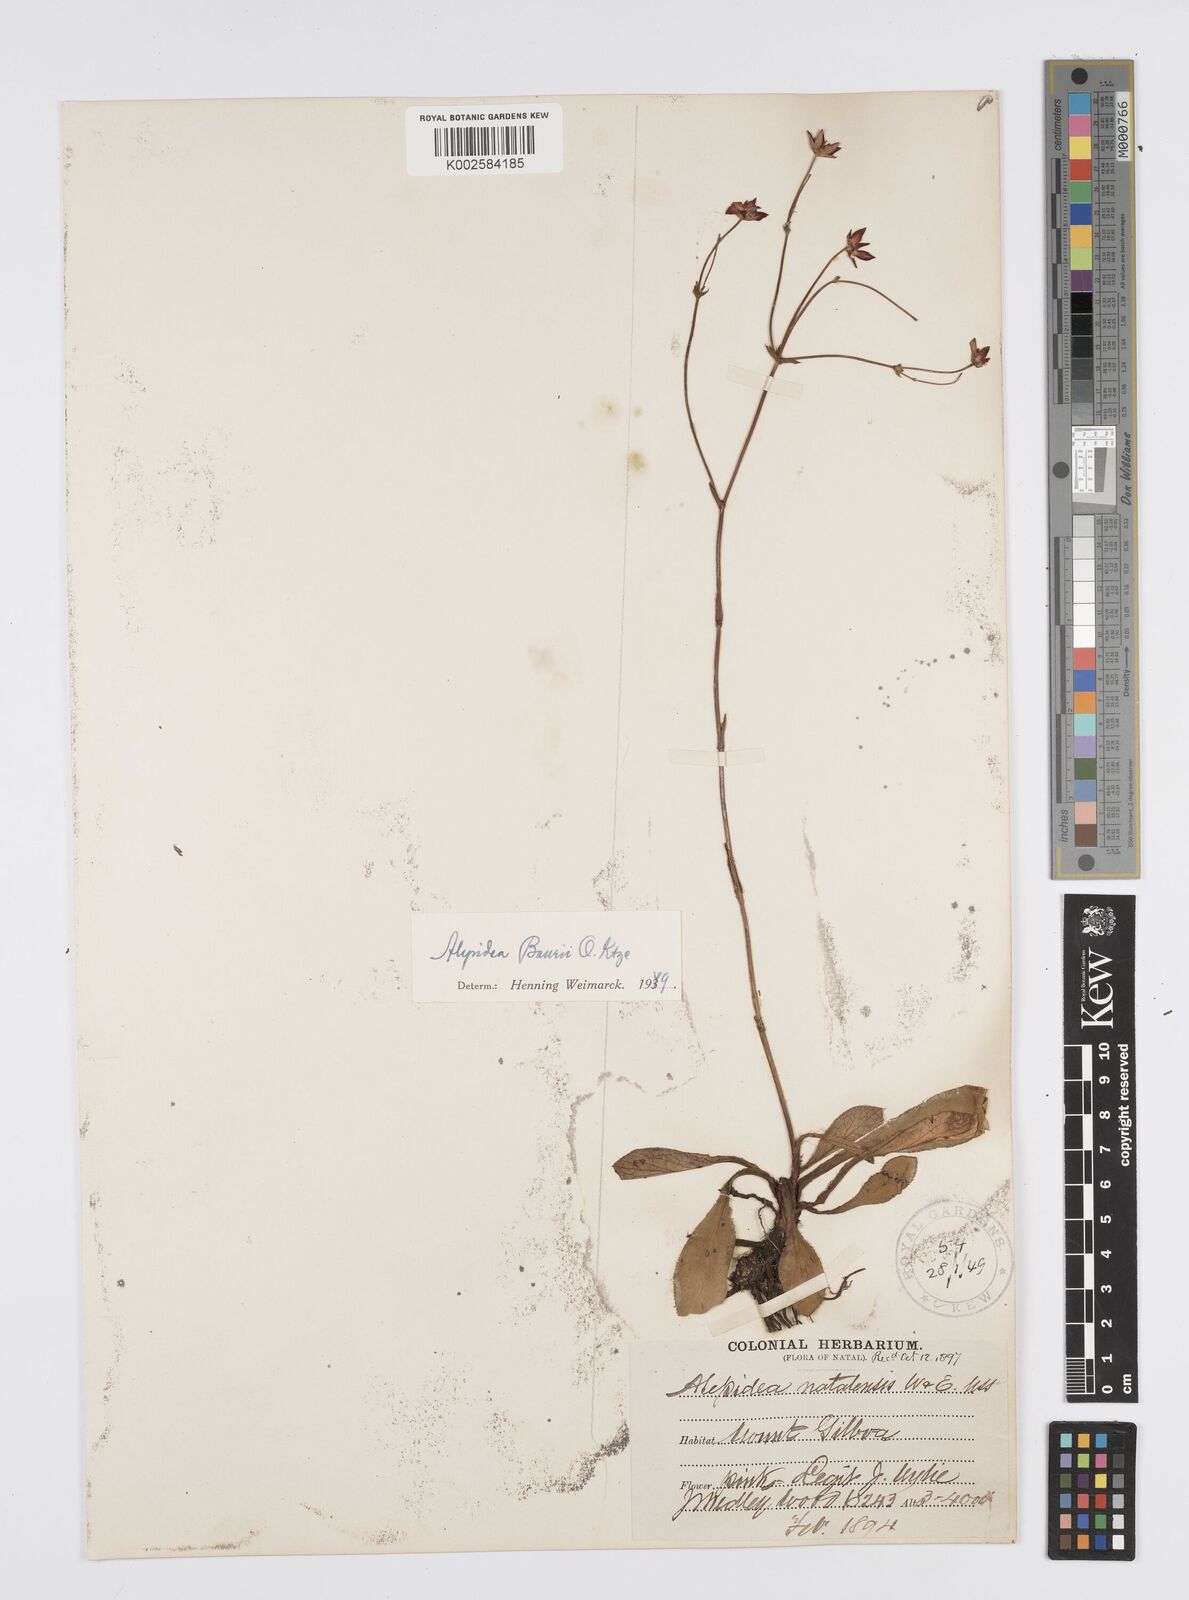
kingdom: Plantae
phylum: Tracheophyta
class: Magnoliopsida
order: Apiales
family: Apiaceae
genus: Alepidea
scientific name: Alepidea natalensis
